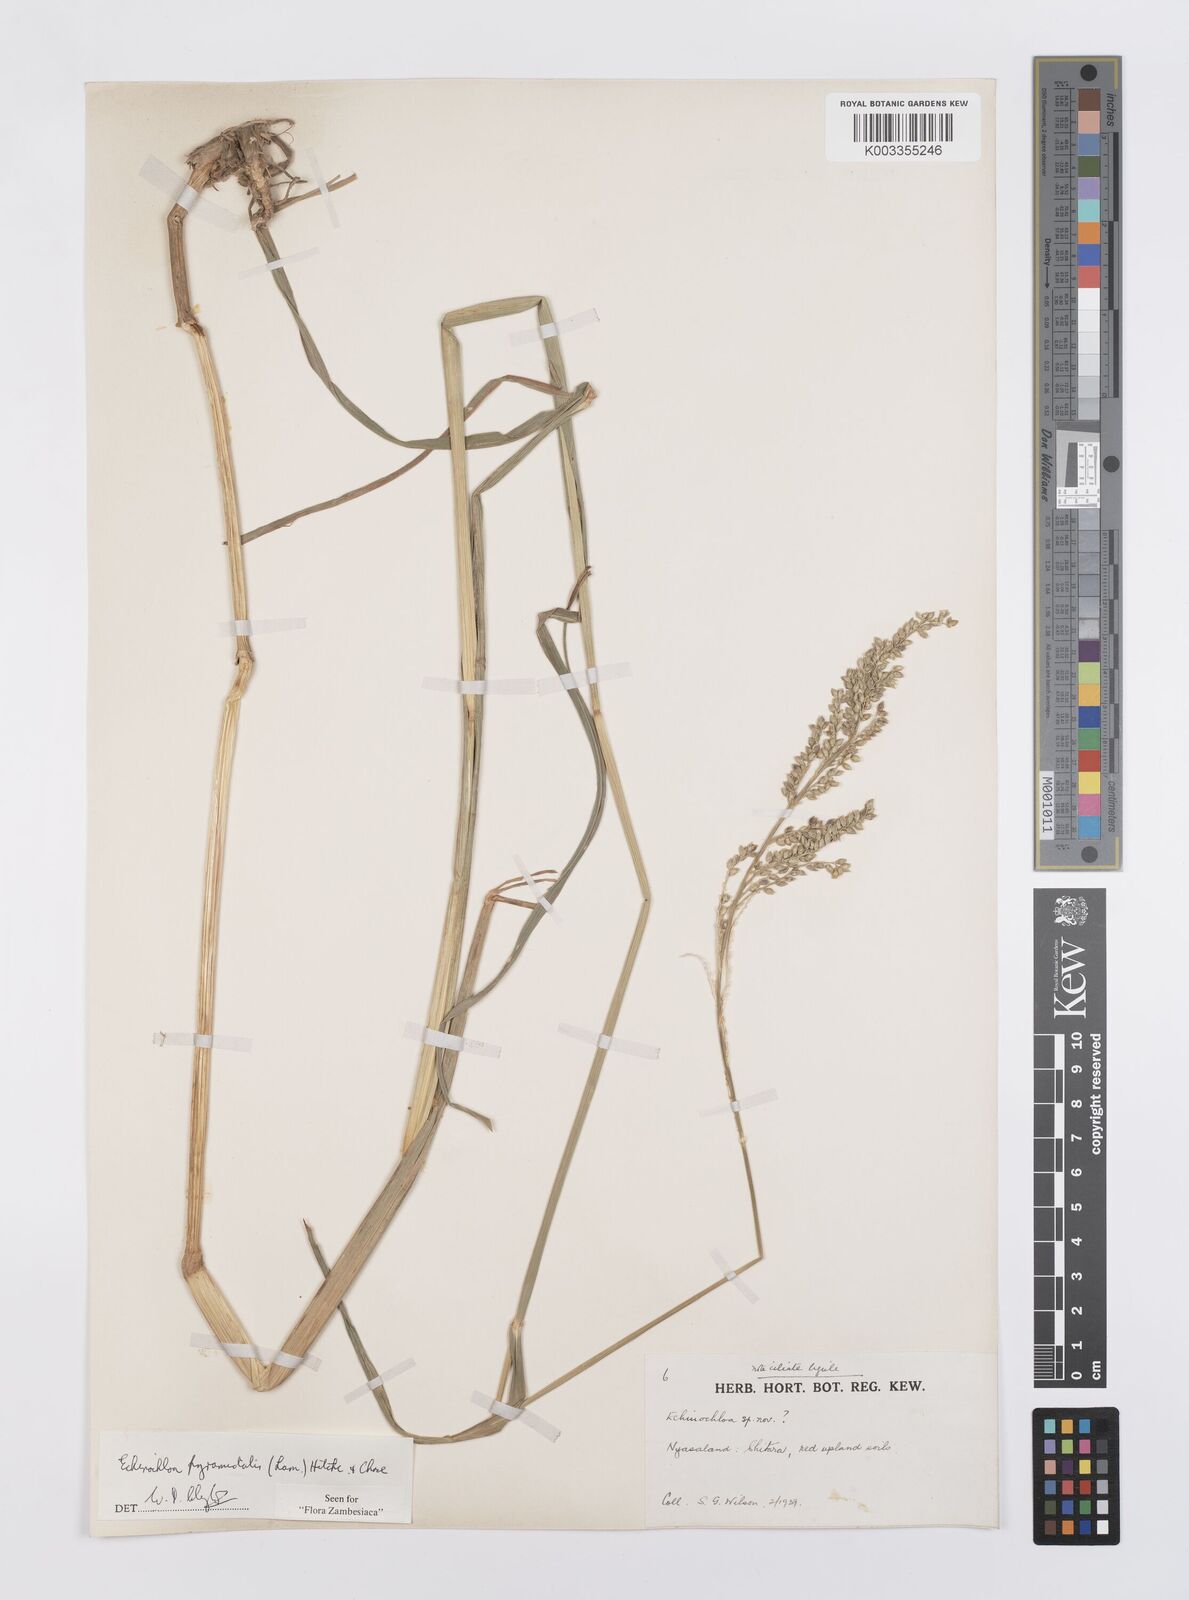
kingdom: Plantae
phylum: Tracheophyta
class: Liliopsida
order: Poales
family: Poaceae
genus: Echinochloa
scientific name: Echinochloa pyramidalis
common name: Antelope grass
